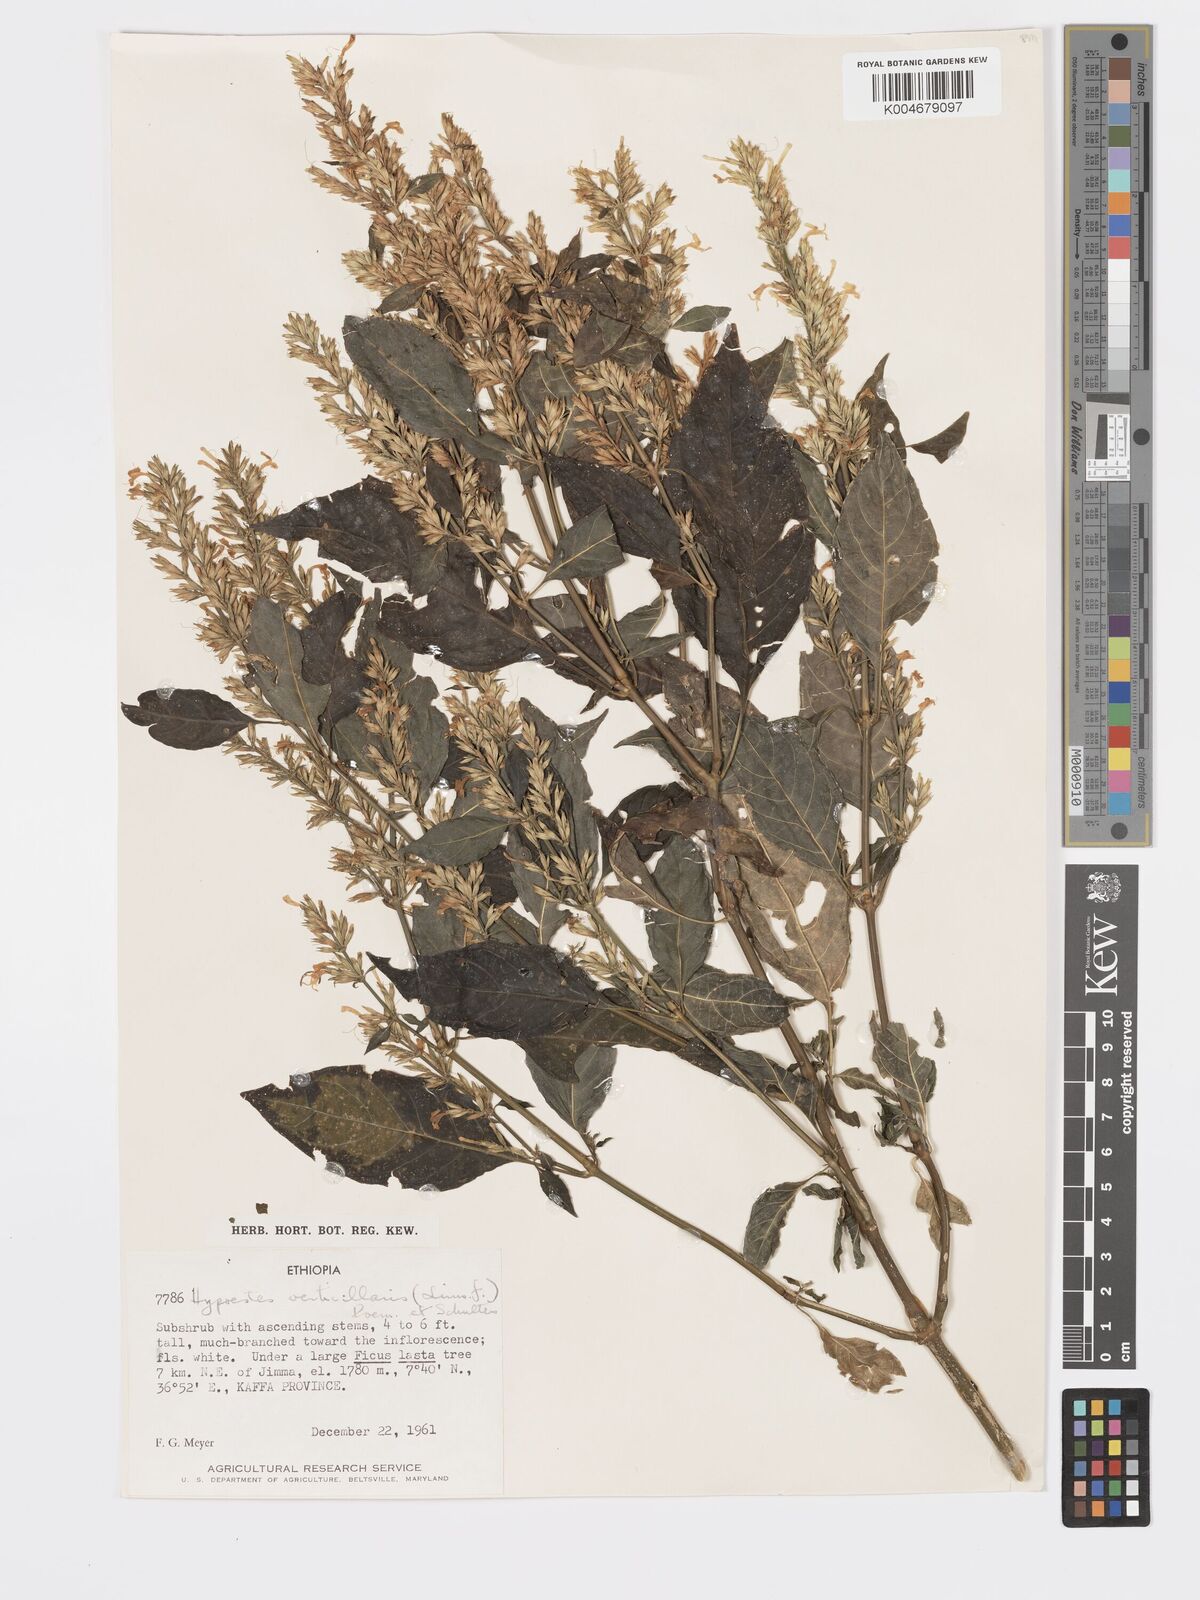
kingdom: Plantae
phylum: Tracheophyta
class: Magnoliopsida
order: Lamiales
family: Acanthaceae
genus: Hypoestes
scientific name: Hypoestes forskaolii
